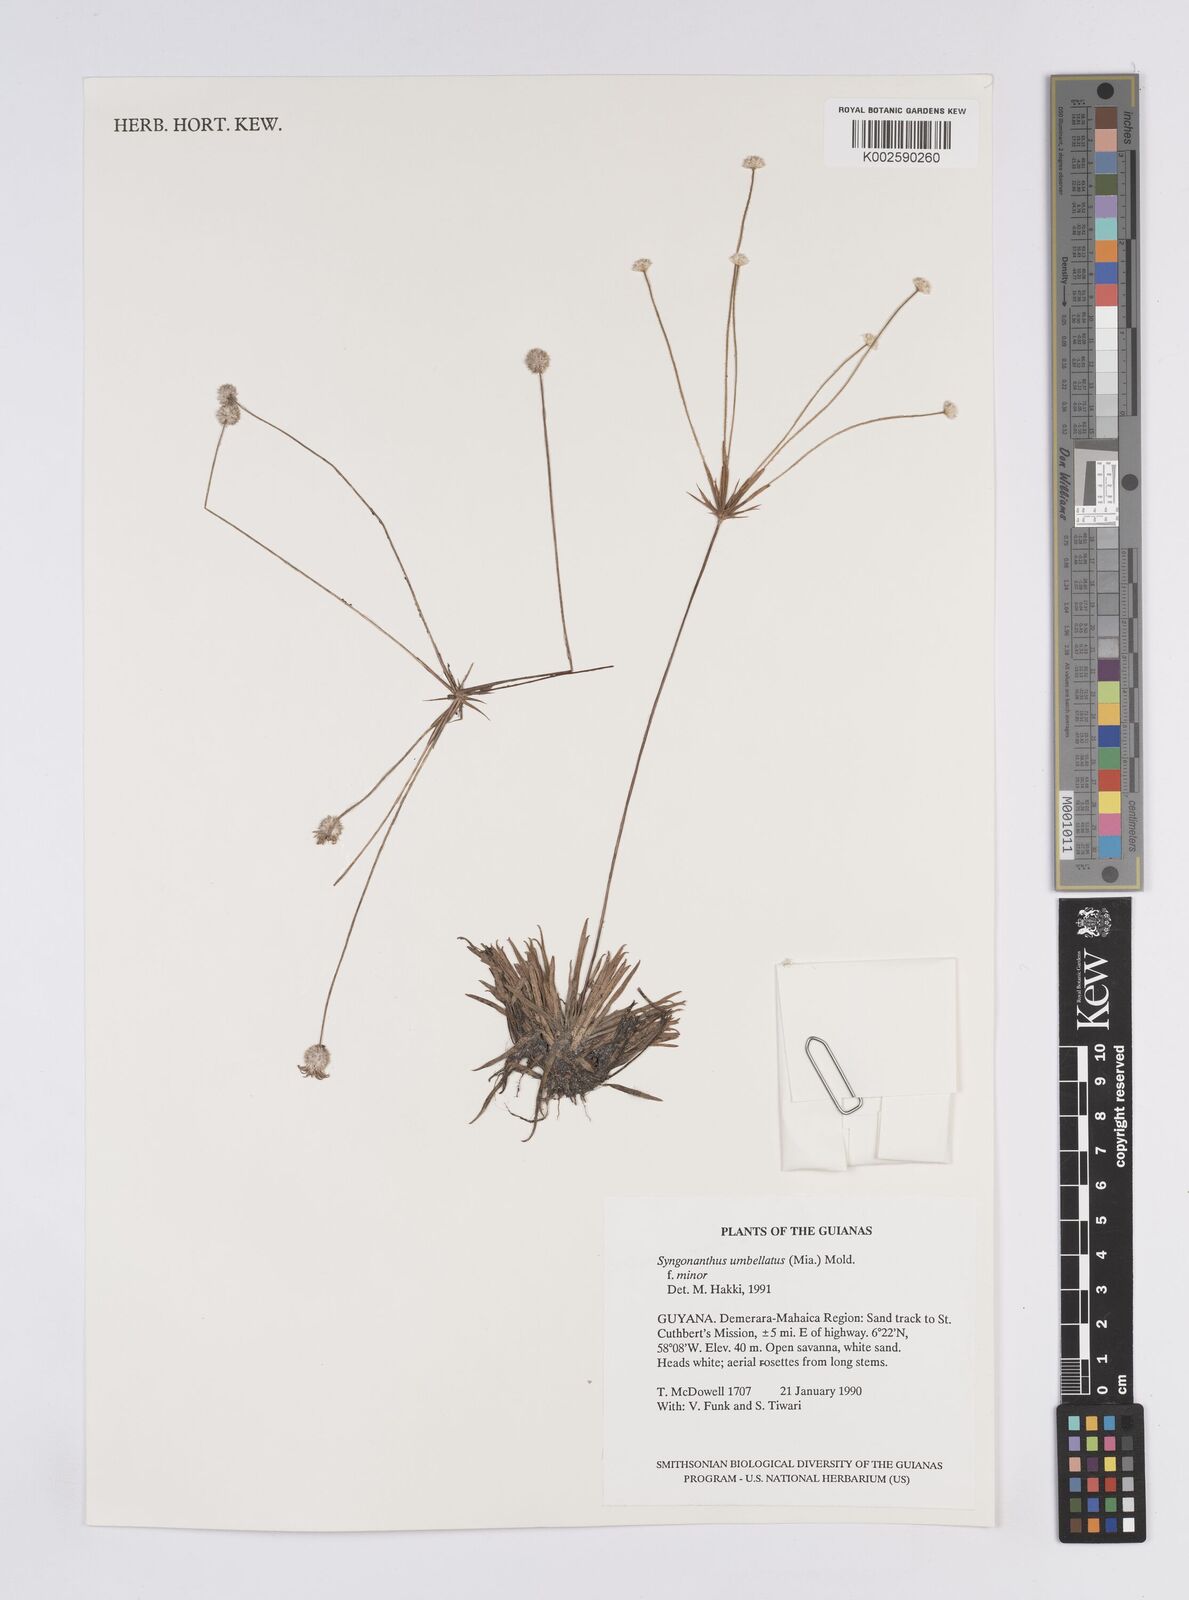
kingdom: Plantae
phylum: Tracheophyta
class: Liliopsida
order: Poales
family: Eriocaulaceae
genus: Syngonanthus
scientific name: Syngonanthus umbellatus
